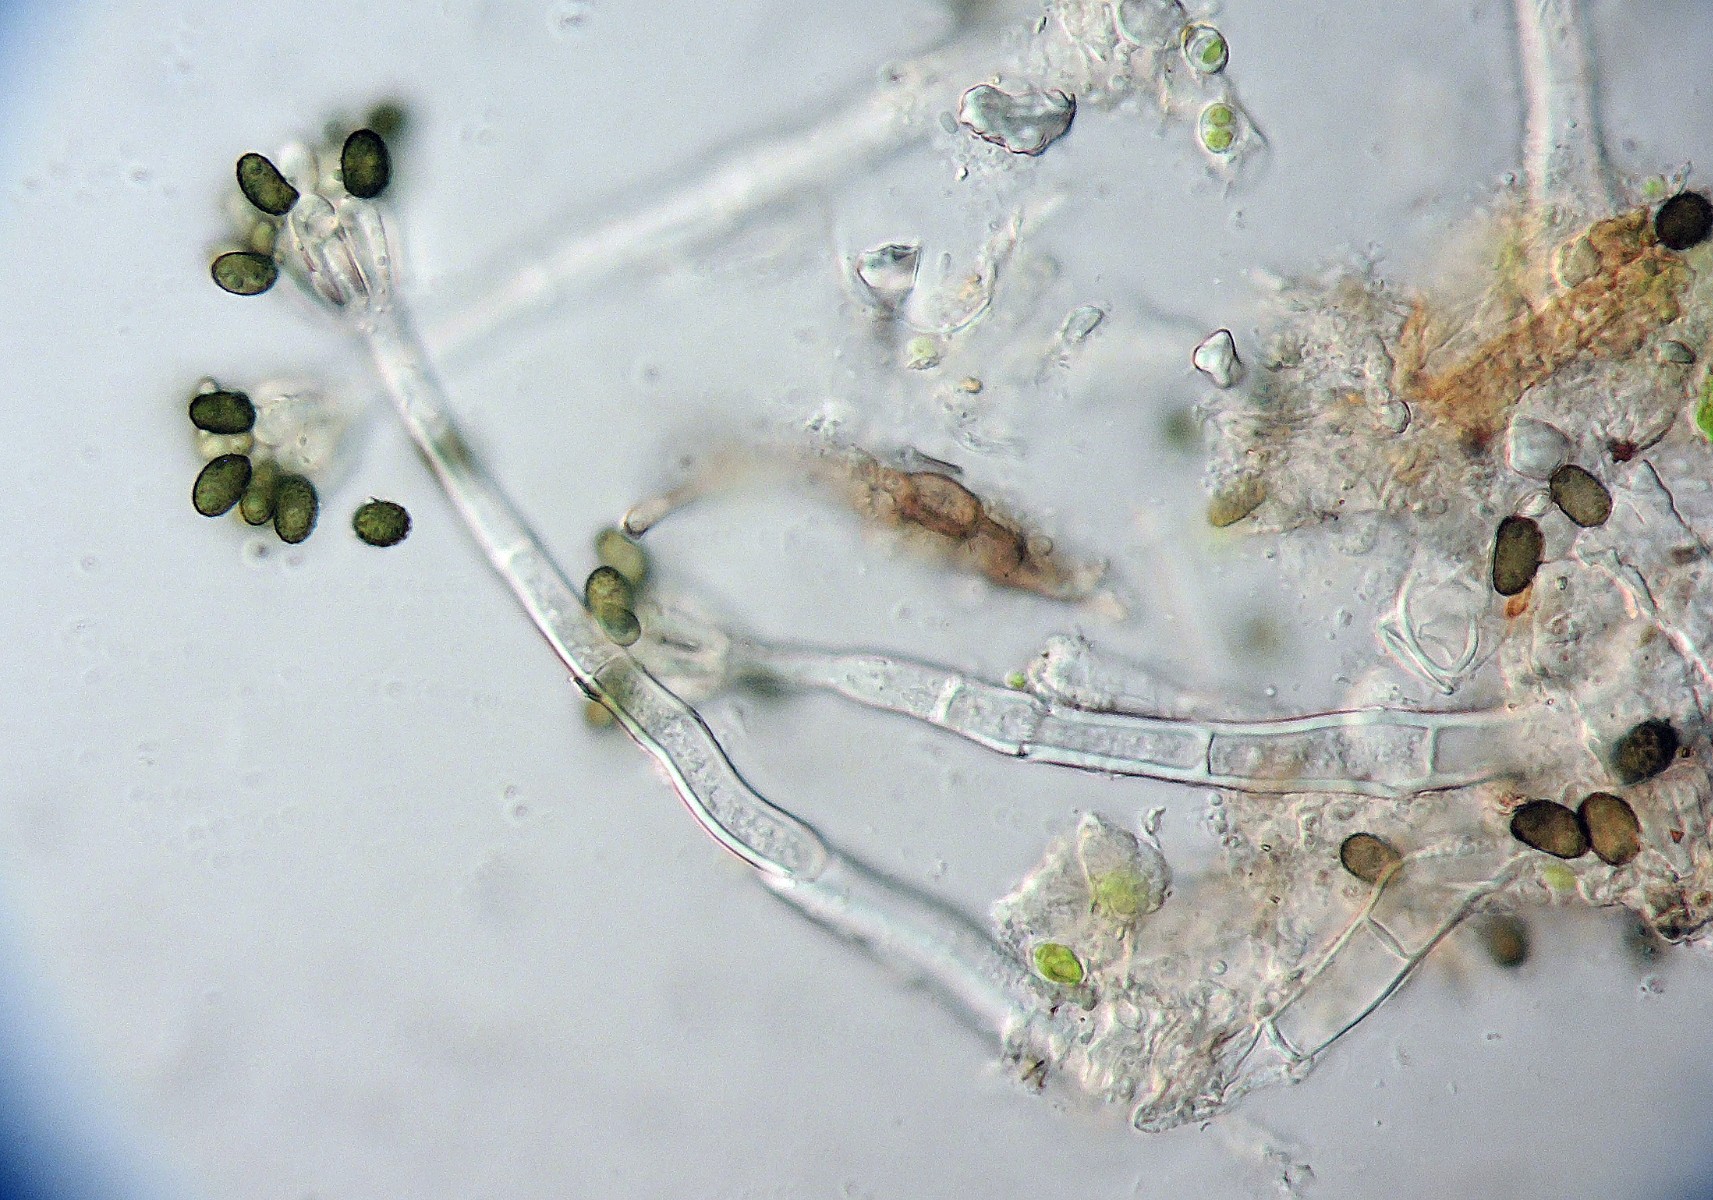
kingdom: Fungi
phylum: Ascomycota
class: Sordariomycetes
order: Hypocreales
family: Stachybotryaceae
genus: Stachybotrys
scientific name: Stachybotrys chartarum
